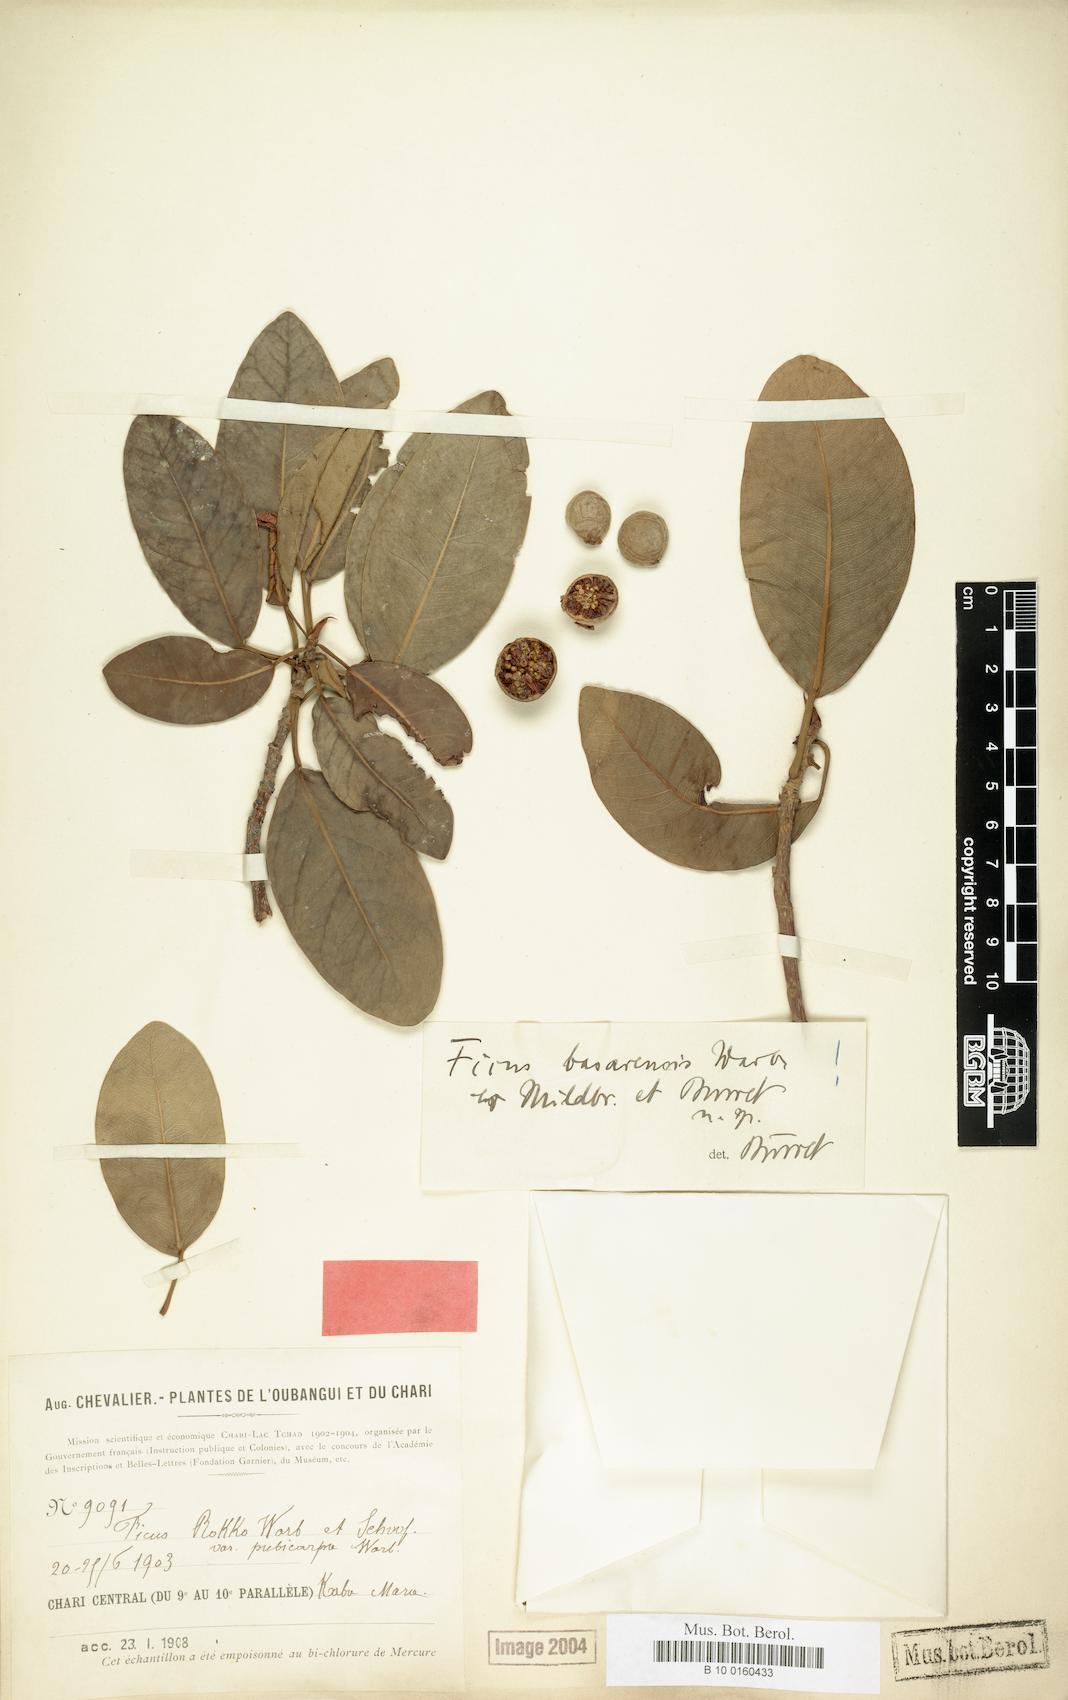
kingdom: Plantae
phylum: Tracheophyta
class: Magnoliopsida
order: Rosales
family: Moraceae
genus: Ficus
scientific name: Ficus thonningii
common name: Fig
